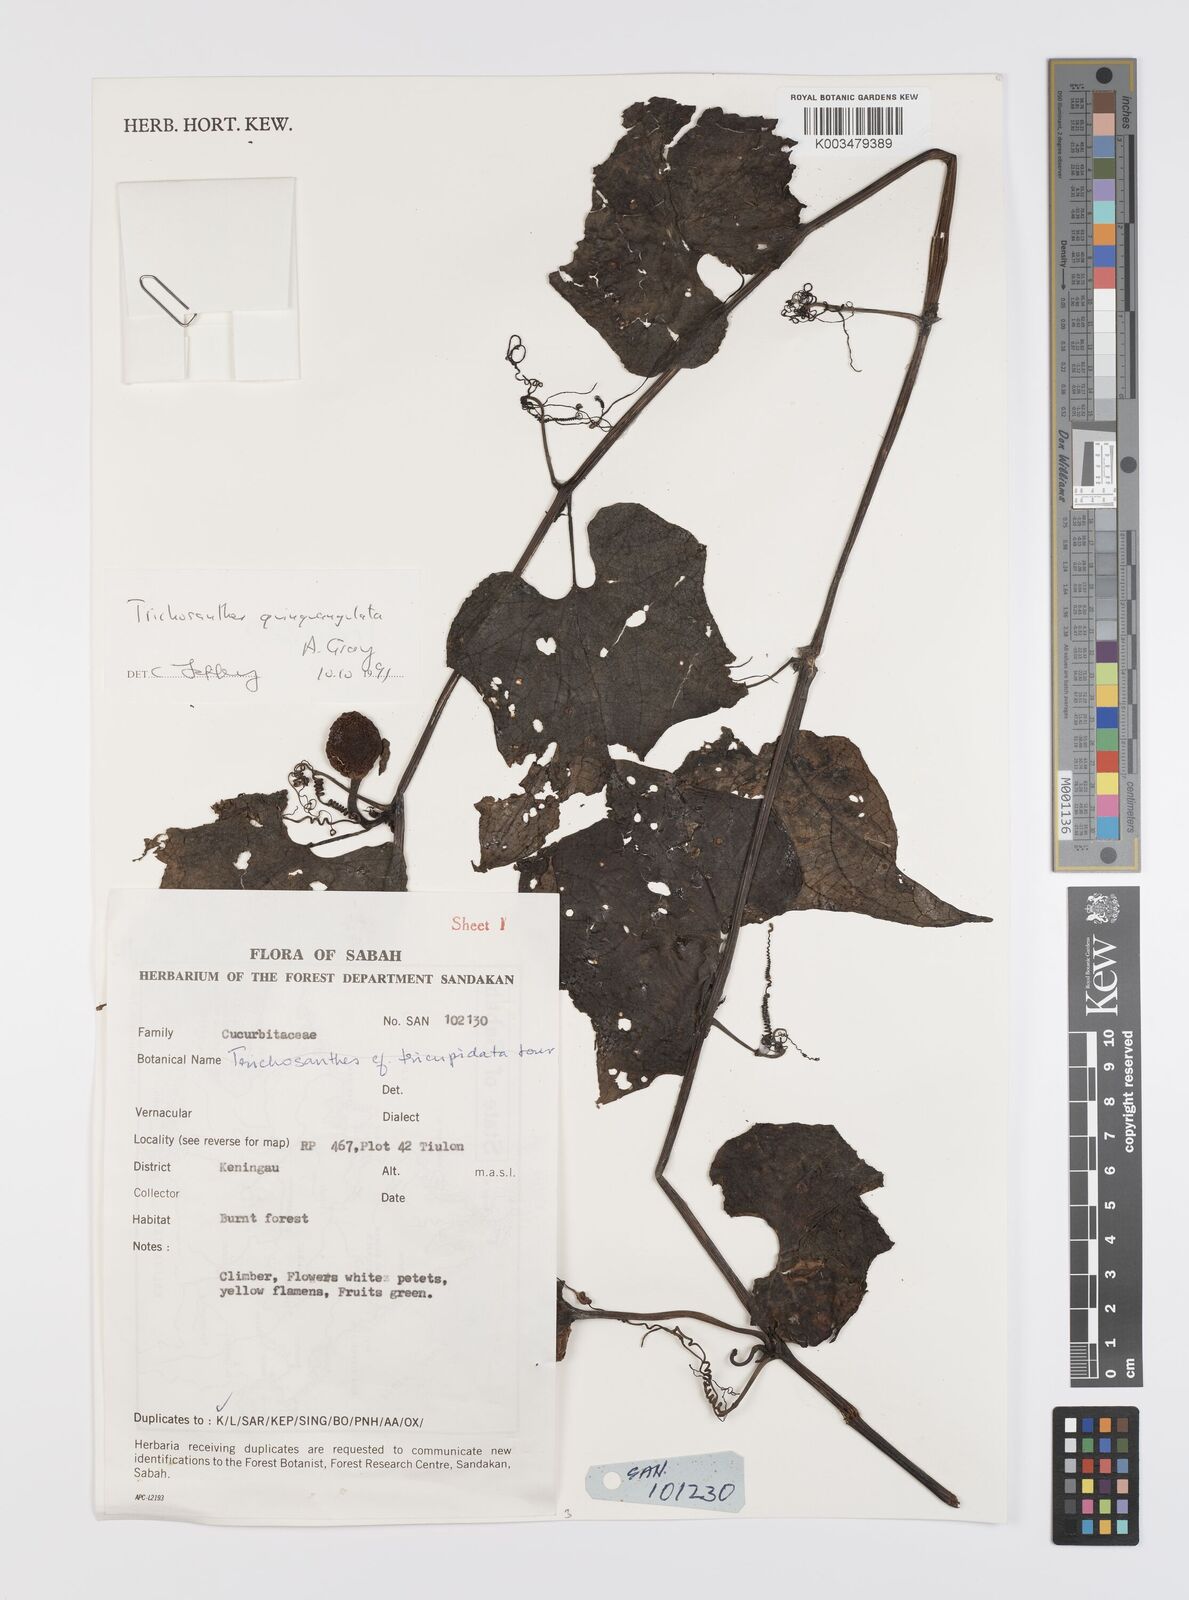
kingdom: Plantae
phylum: Tracheophyta
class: Magnoliopsida
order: Cucurbitales
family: Cucurbitaceae
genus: Trichosanthes
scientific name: Trichosanthes tricuspidata
